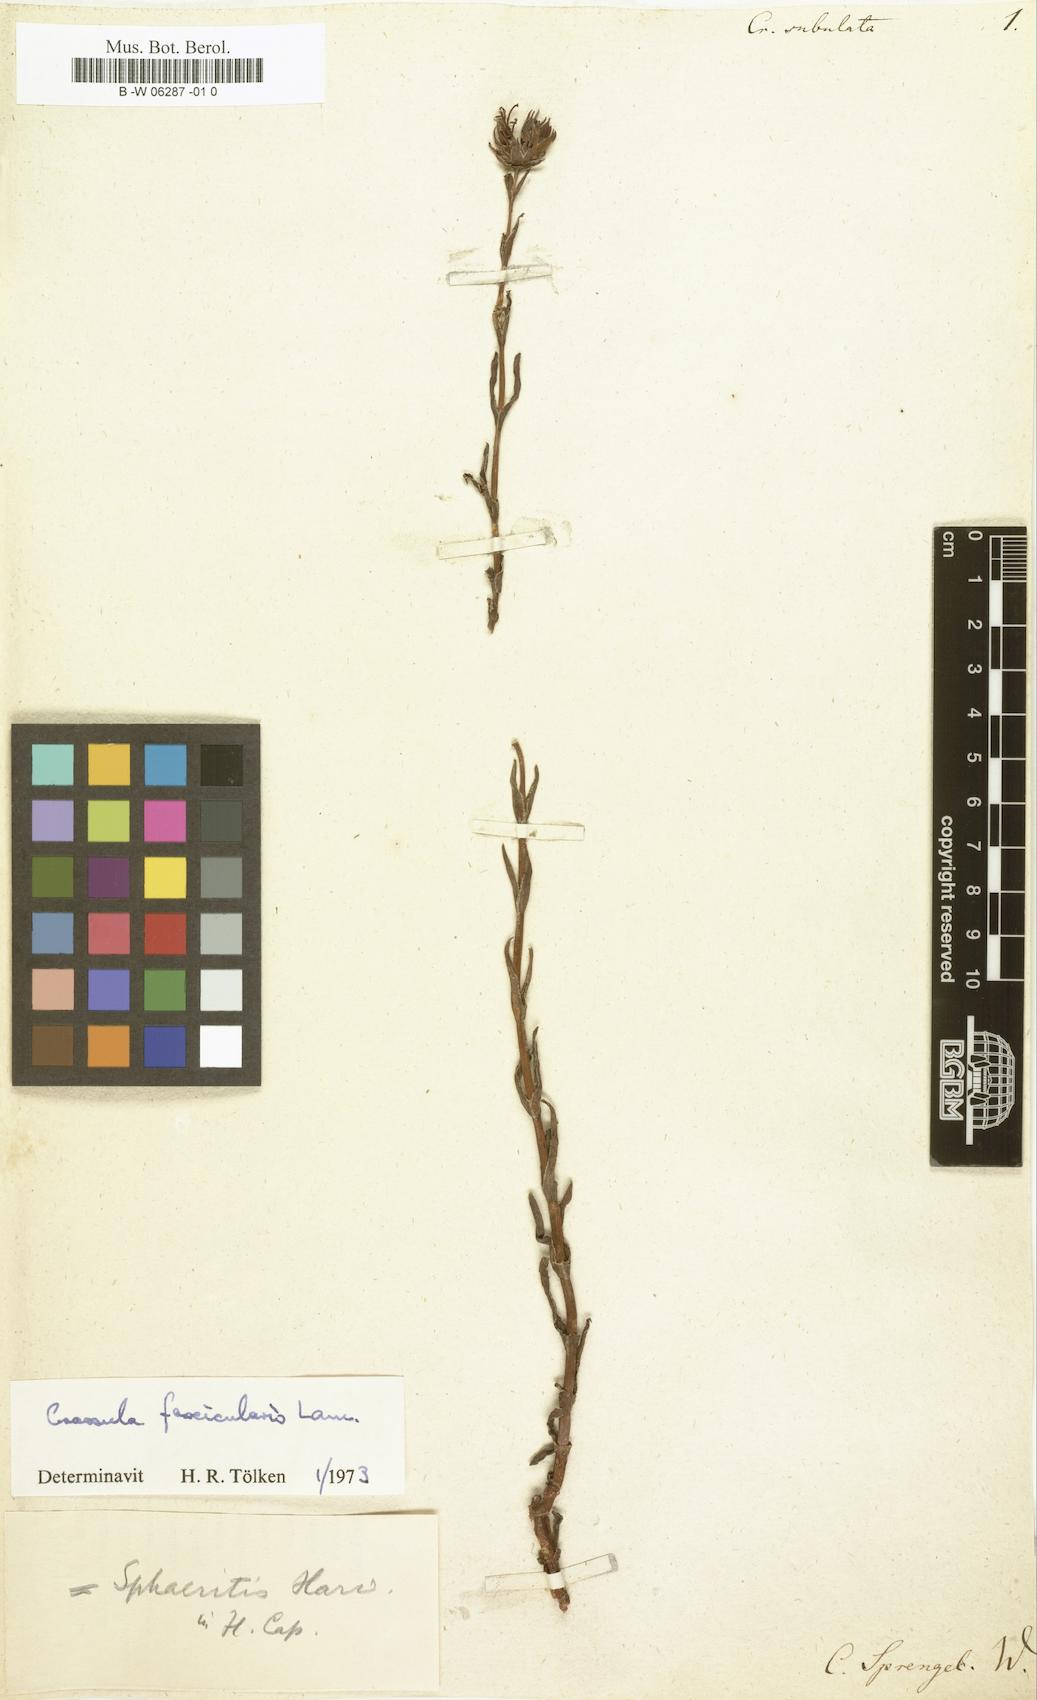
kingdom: Plantae
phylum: Tracheophyta
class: Magnoliopsida
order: Saxifragales
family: Crassulaceae
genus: Crassula
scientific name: Crassula subulata
